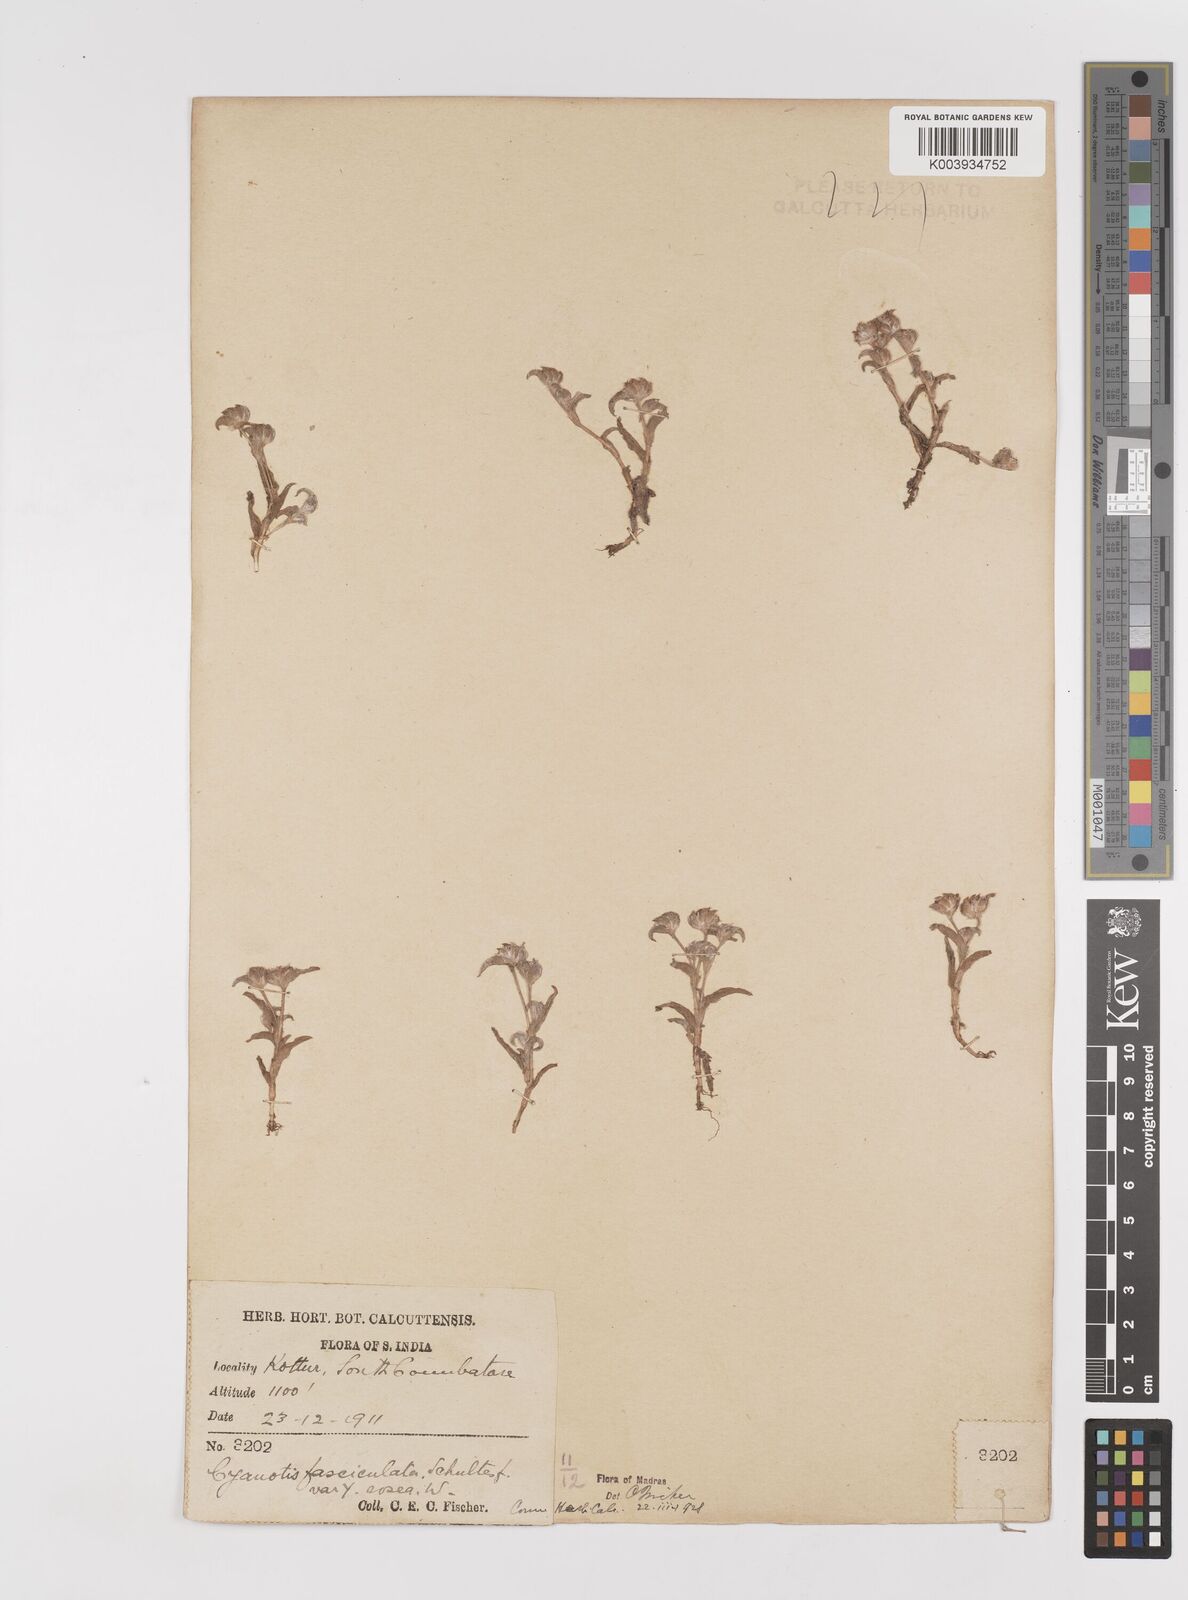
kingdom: Plantae
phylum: Tracheophyta
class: Liliopsida
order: Commelinales
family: Commelinaceae
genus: Cyanotis
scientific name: Cyanotis fasciculata
